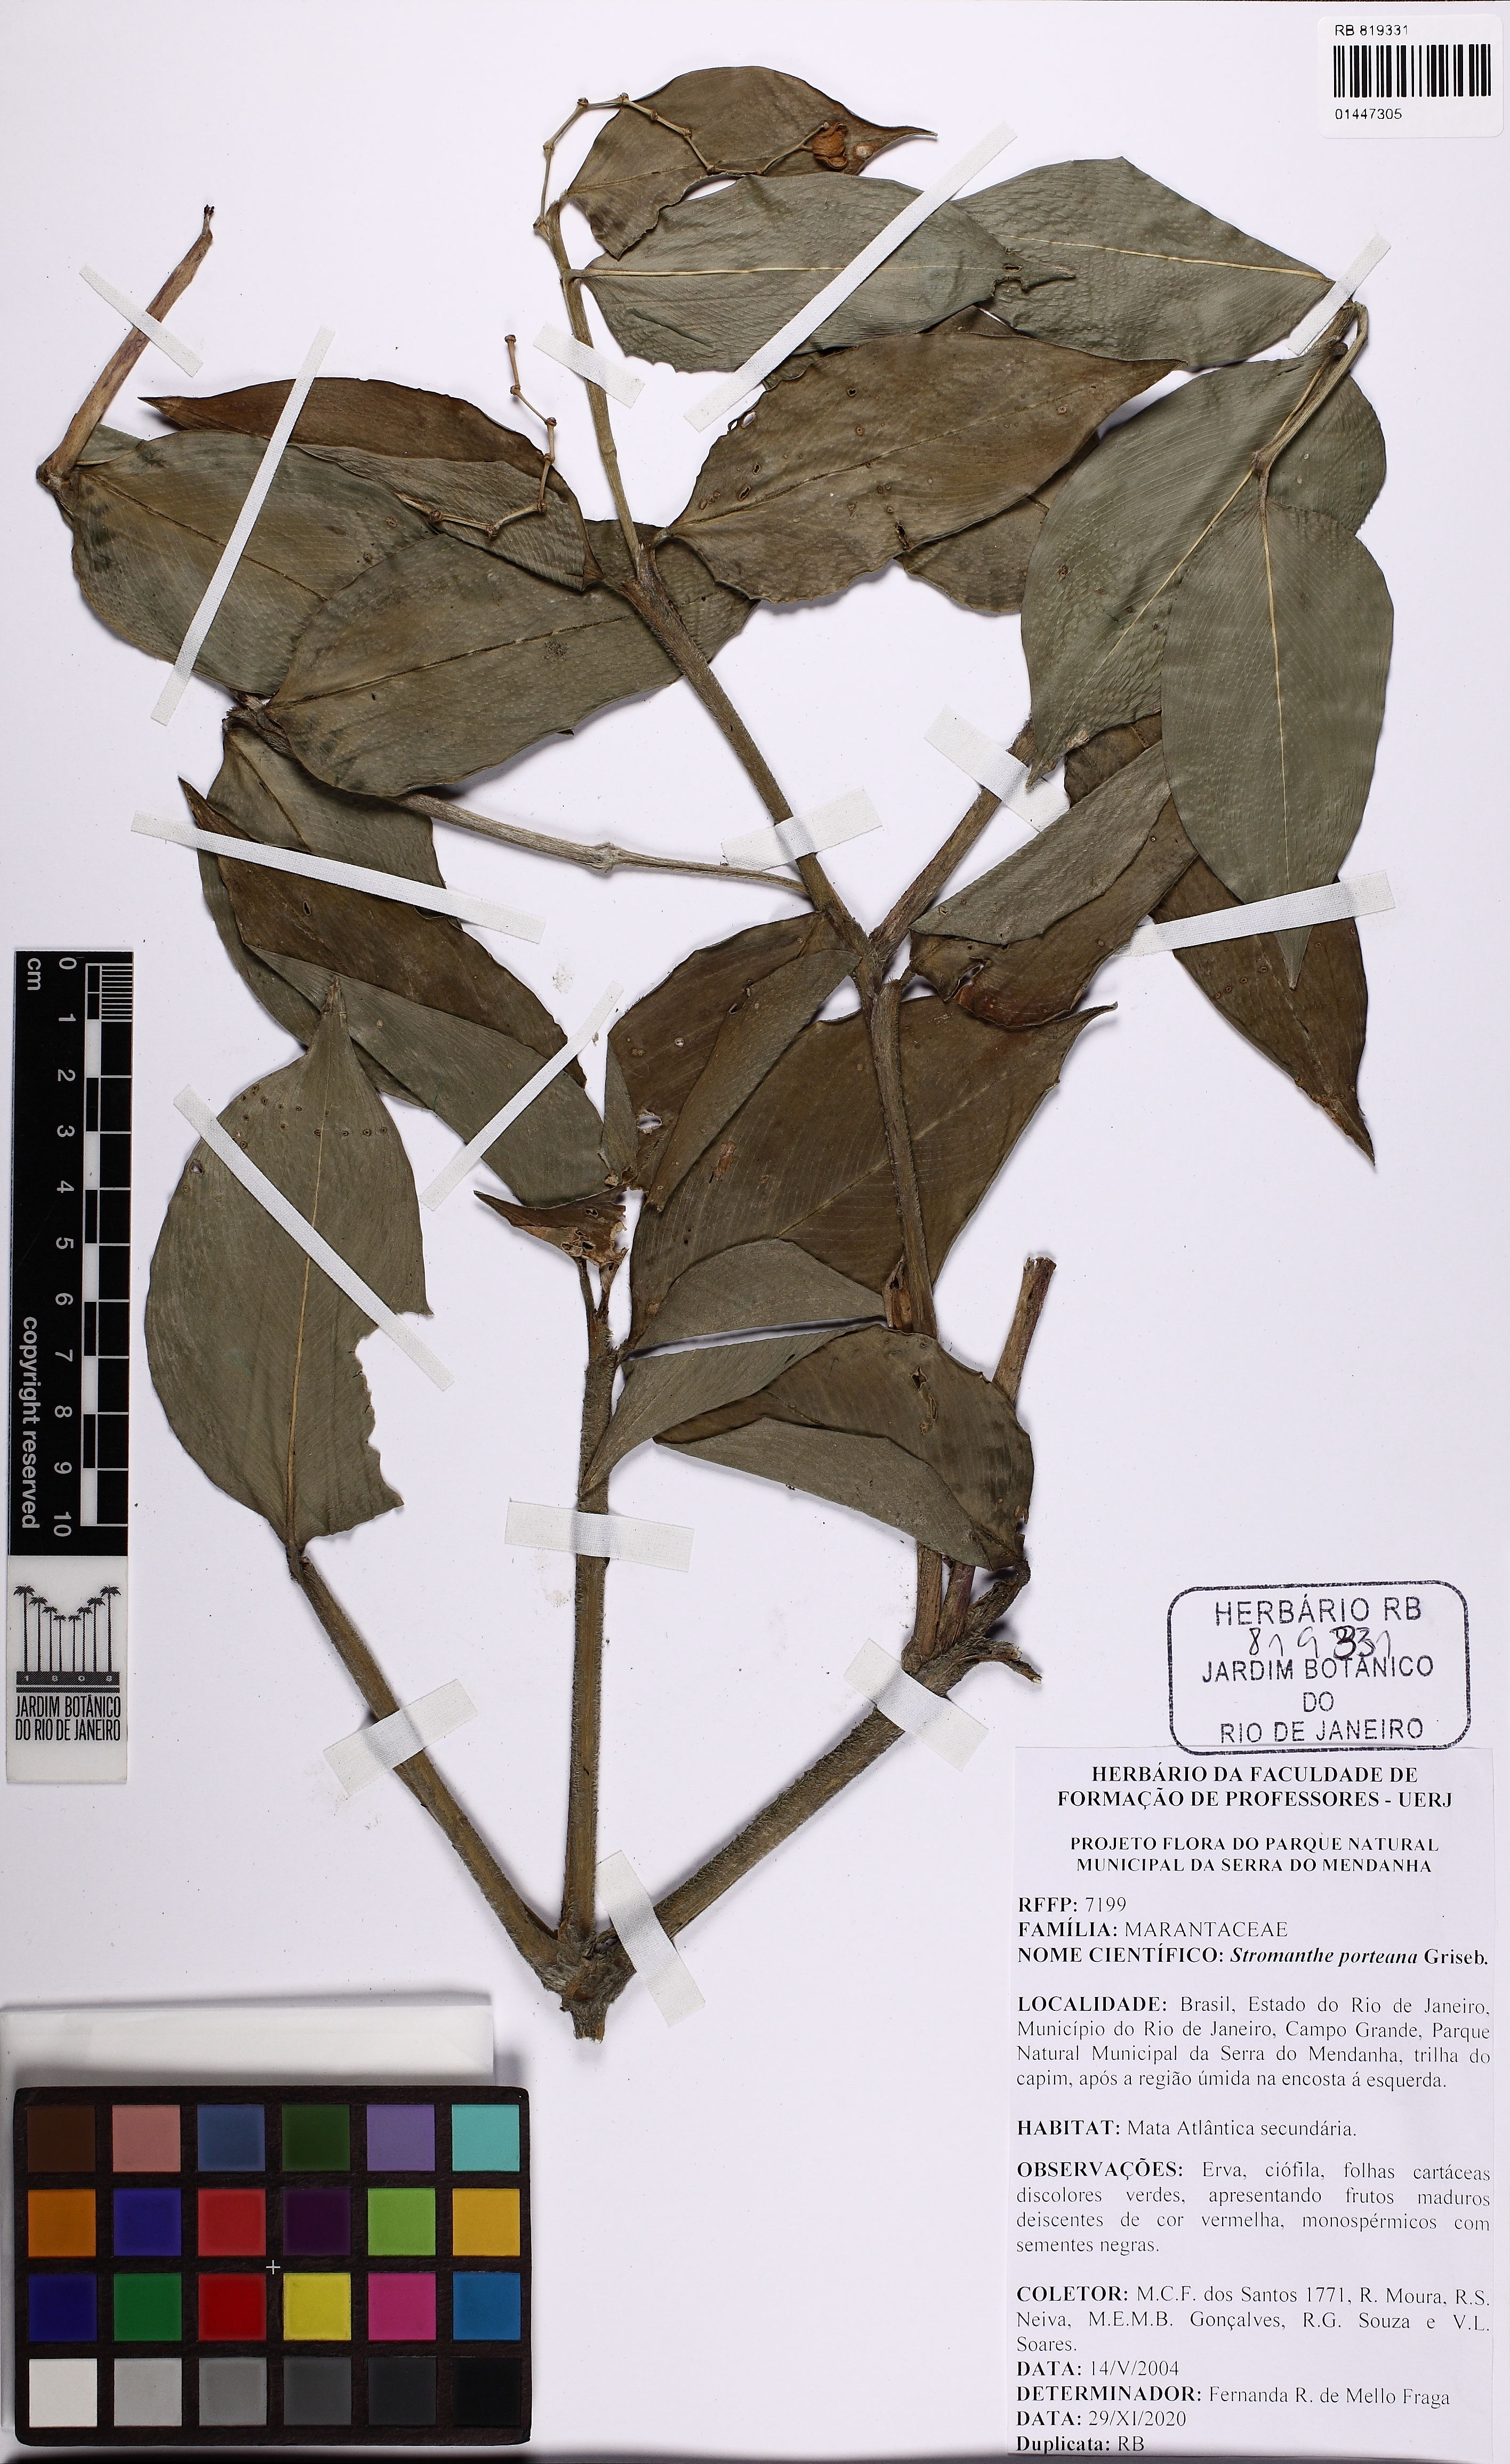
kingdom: Plantae
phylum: Tracheophyta
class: Liliopsida
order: Zingiberales
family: Marantaceae
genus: Stromanthe
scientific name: Stromanthe porteana
